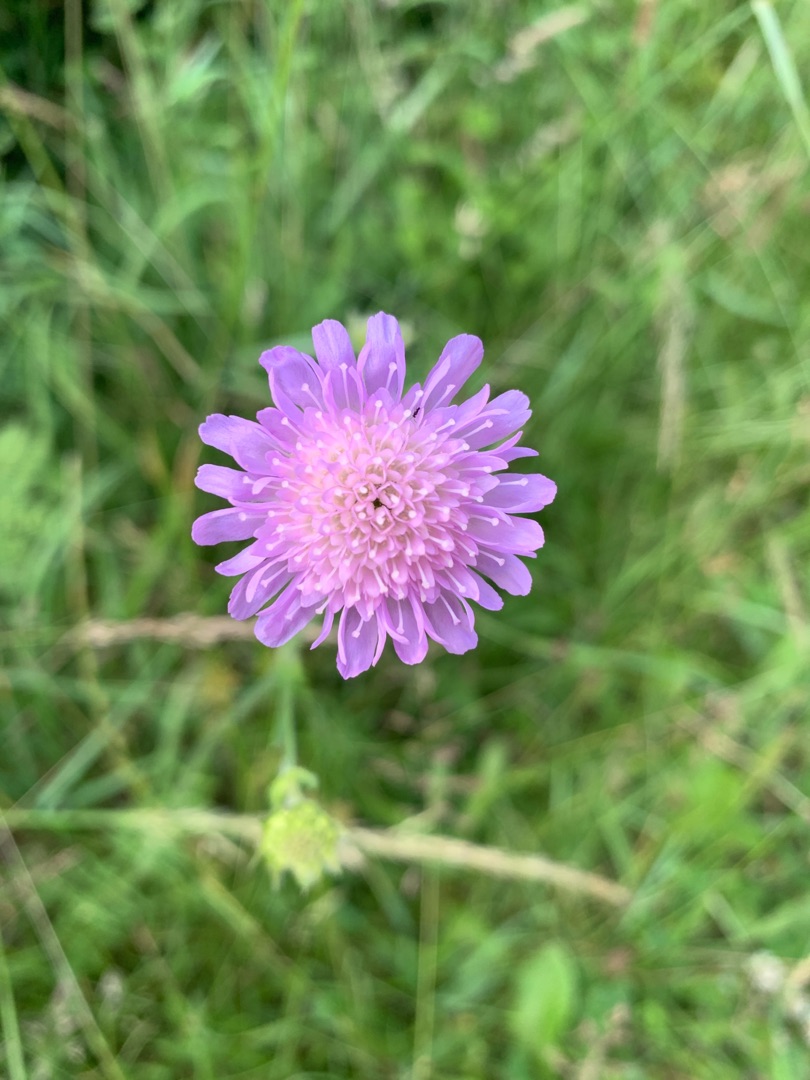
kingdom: Plantae
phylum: Tracheophyta
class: Magnoliopsida
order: Dipsacales
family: Caprifoliaceae
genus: Knautia
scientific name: Knautia arvensis
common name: Blåhat
